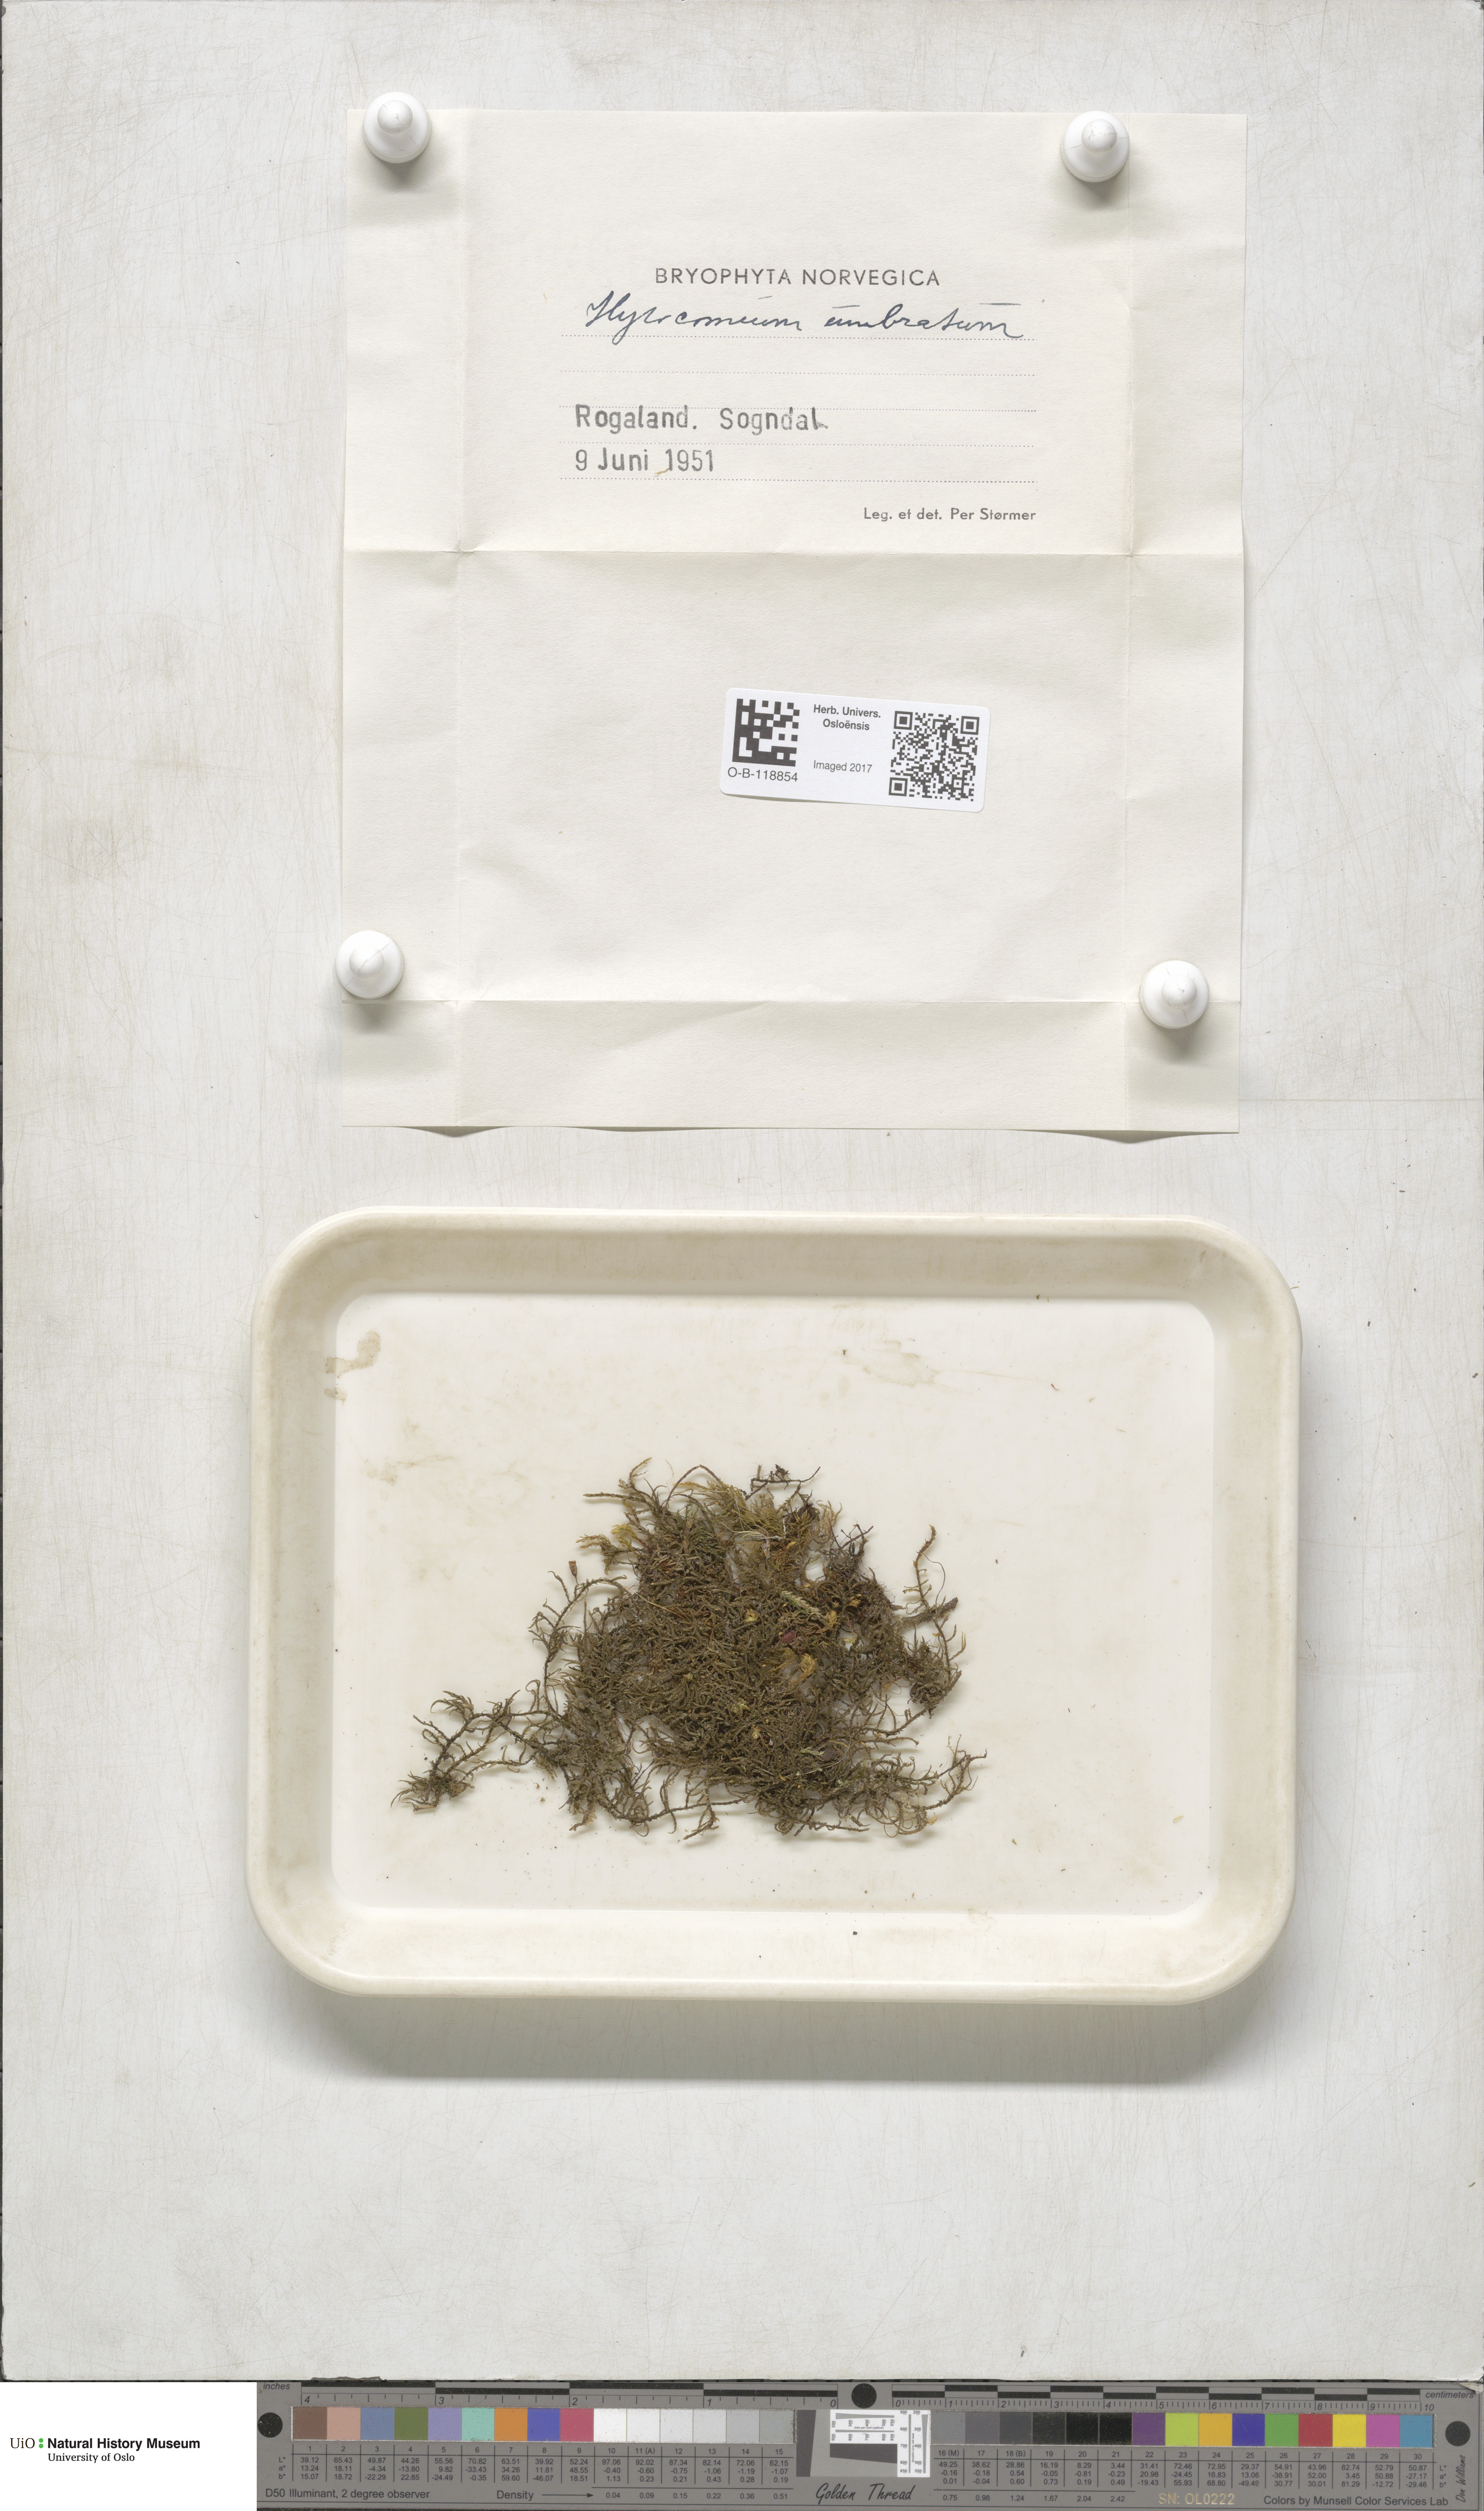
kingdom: Plantae
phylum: Bryophyta
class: Bryopsida
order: Hypnales
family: Hylocomiaceae
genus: Hylocomiastrum
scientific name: Hylocomiastrum umbratum
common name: Shaded woods moss
